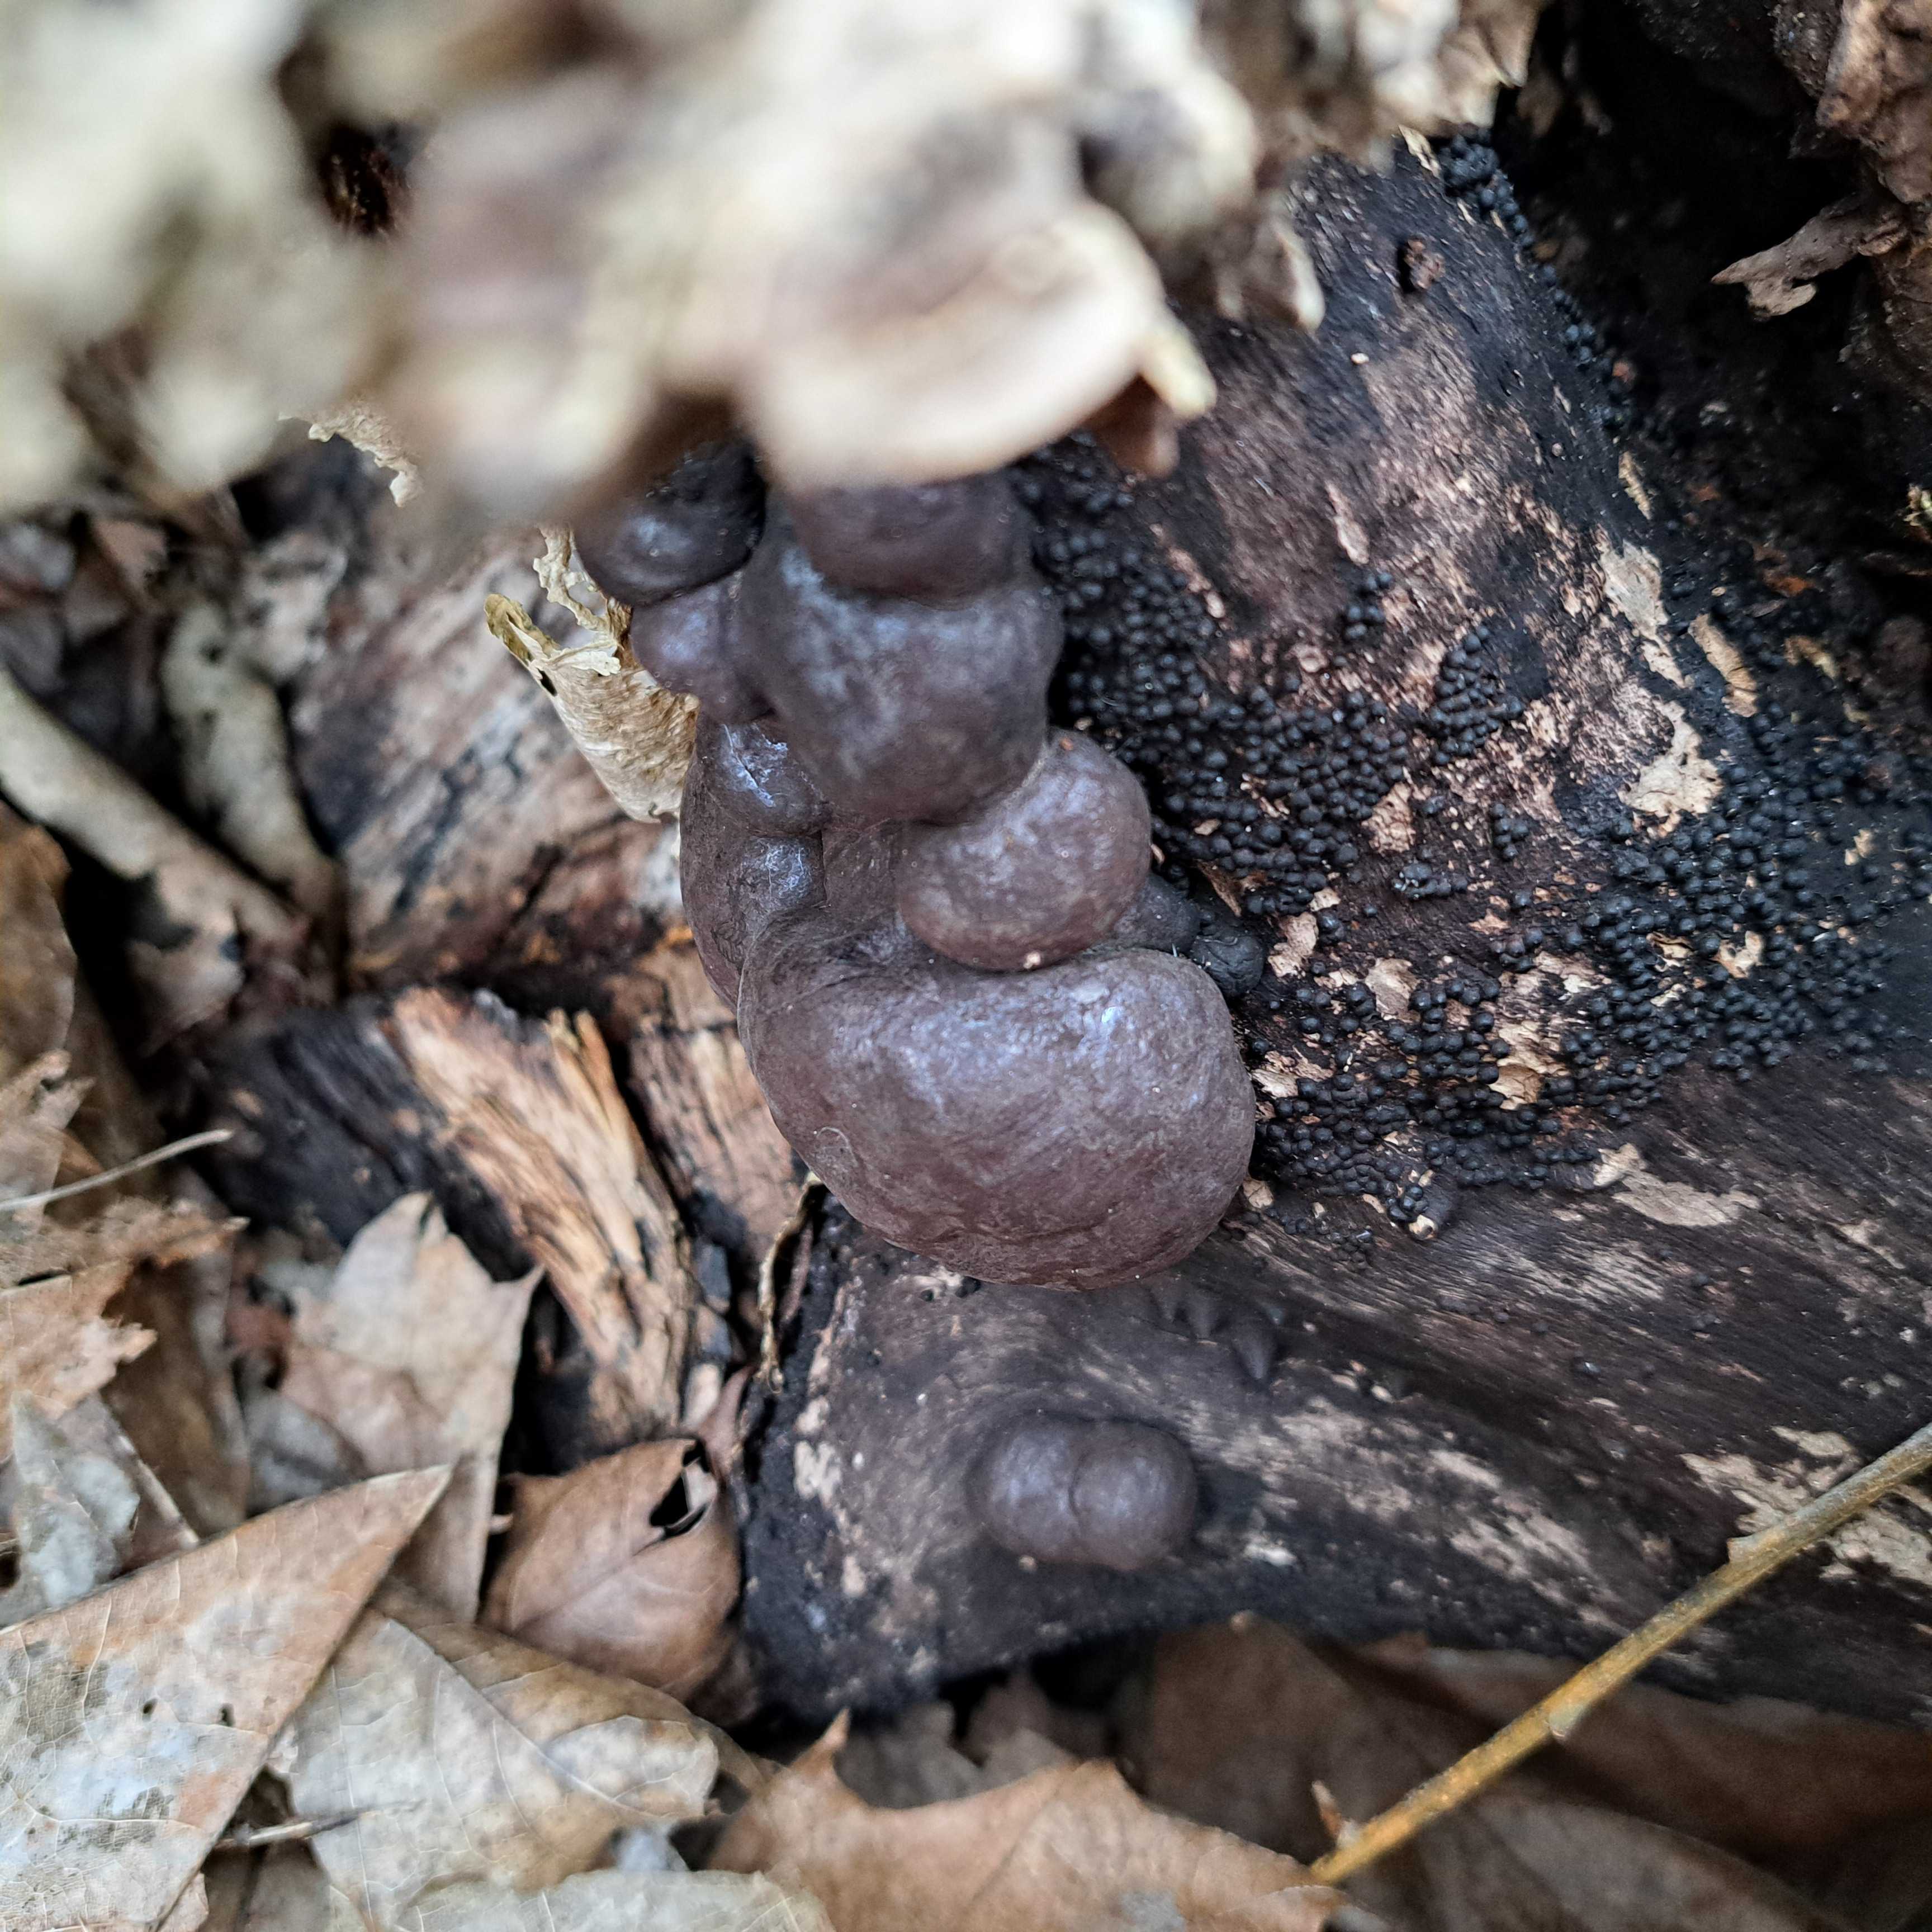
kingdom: Fungi
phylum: Ascomycota
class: Sordariomycetes
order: Xylariales
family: Hypoxylaceae
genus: Daldinia
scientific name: Daldinia concentrica
